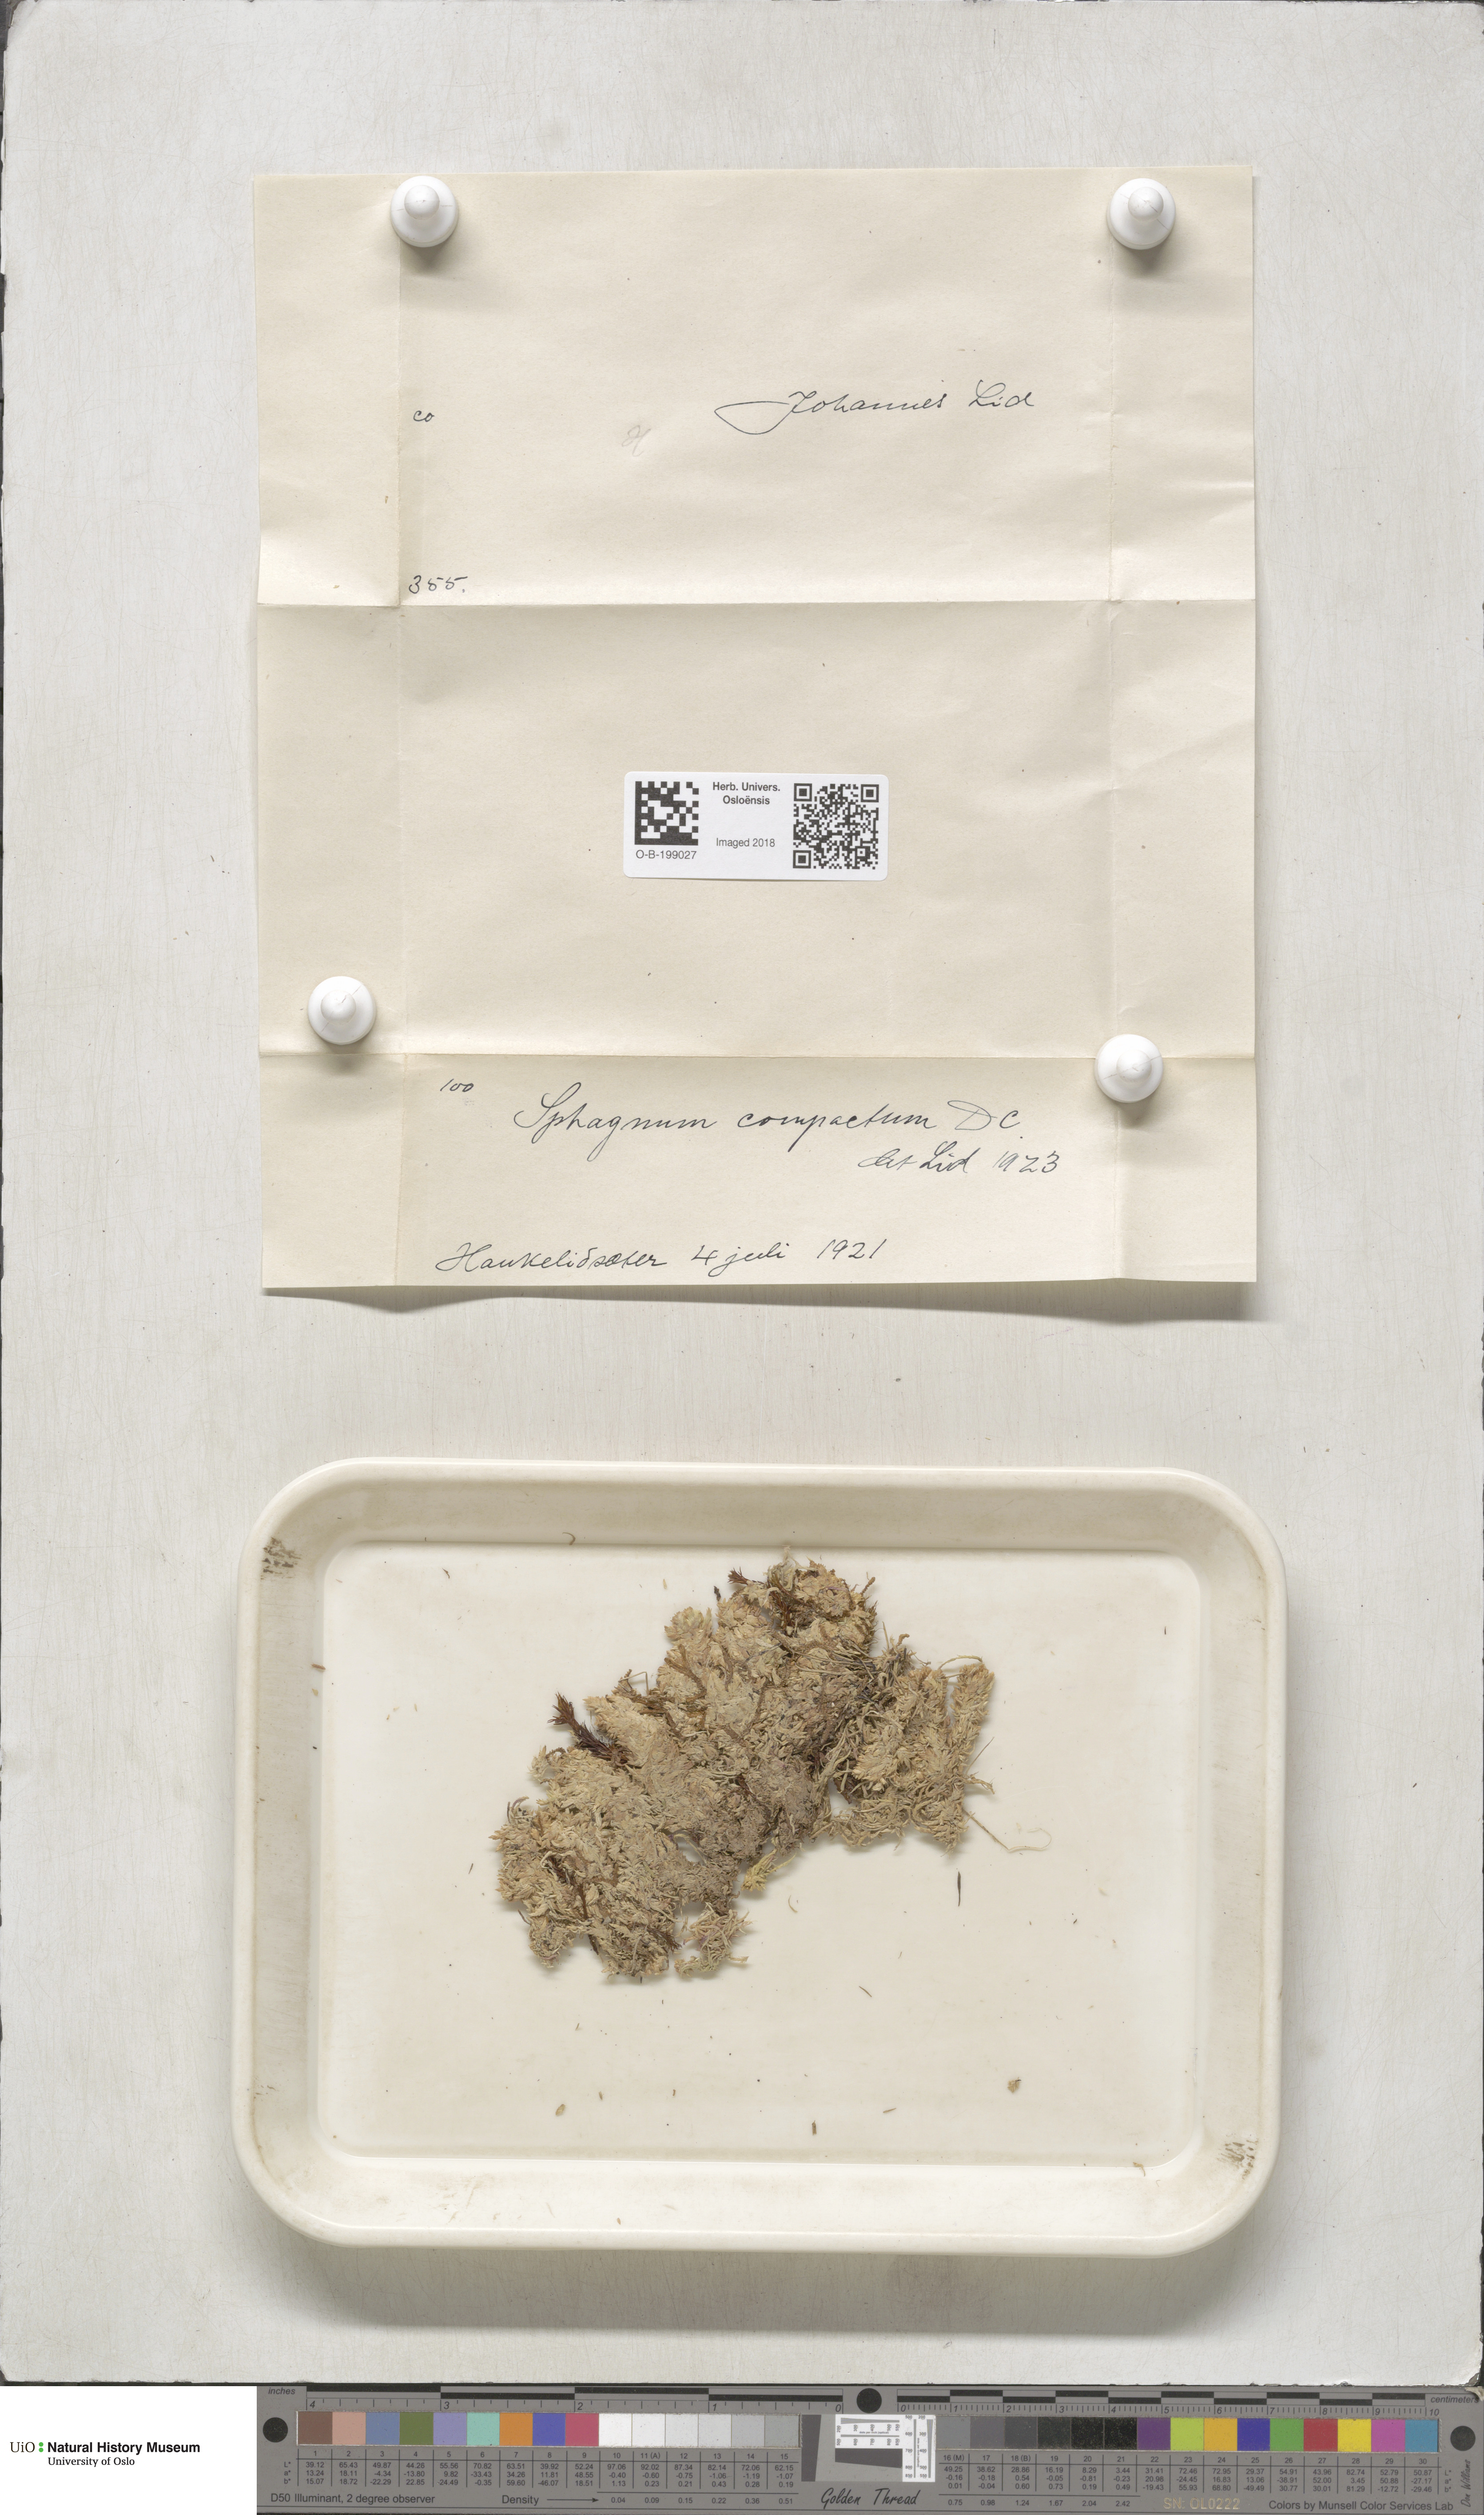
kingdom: Plantae
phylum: Bryophyta
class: Sphagnopsida
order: Sphagnales
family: Sphagnaceae
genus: Sphagnum
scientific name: Sphagnum compactum
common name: Compact peat moss
